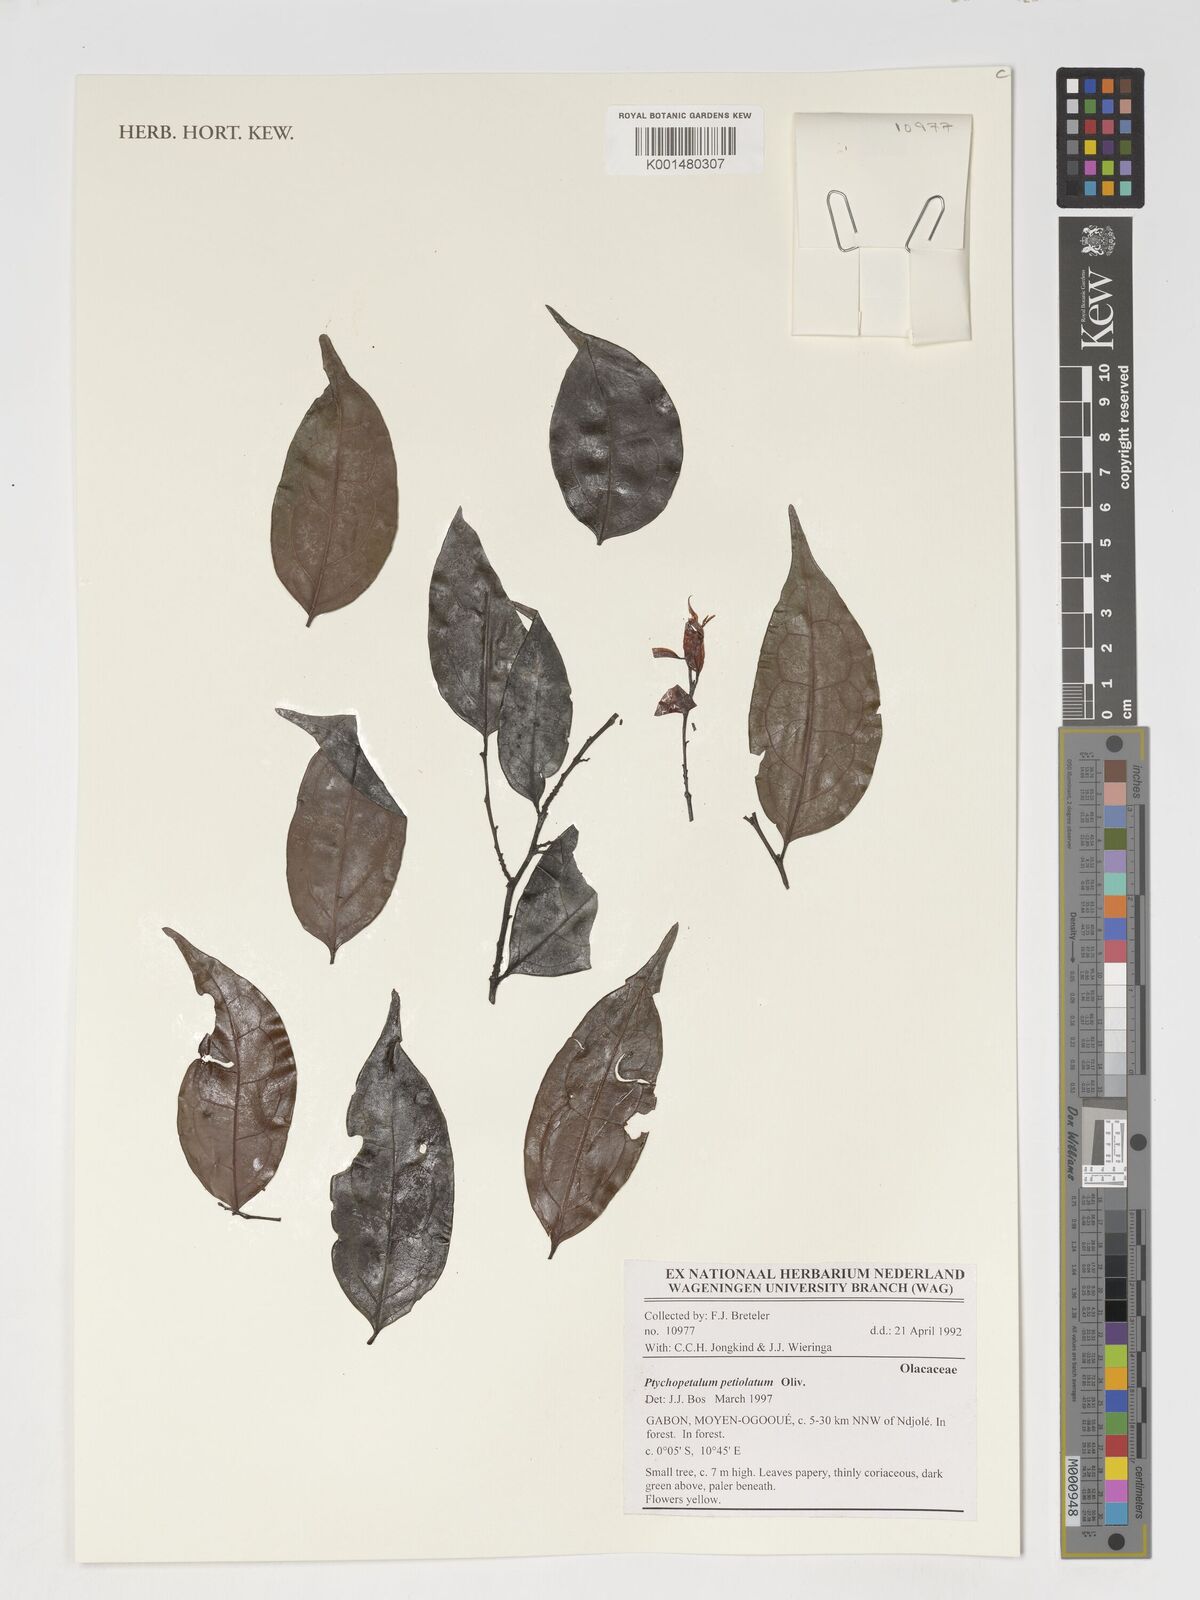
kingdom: Plantae
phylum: Tracheophyta
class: Magnoliopsida
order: Santalales
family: Olacaceae
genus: Ptychopetalum
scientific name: Ptychopetalum petiolatum
